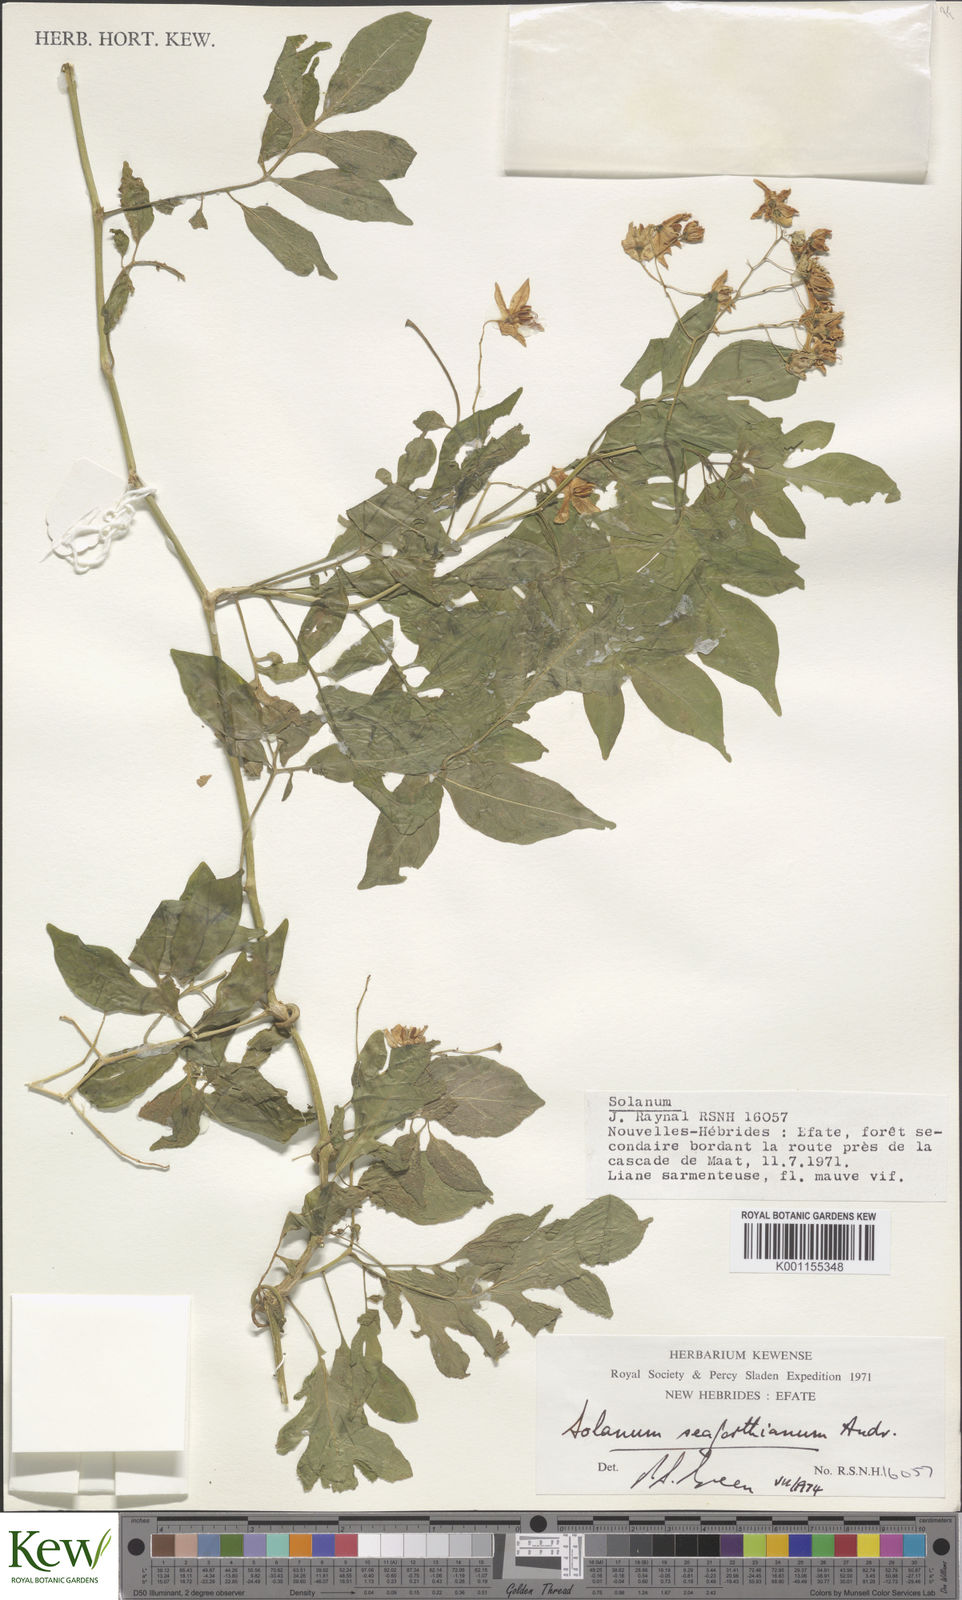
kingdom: Plantae
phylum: Tracheophyta
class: Magnoliopsida
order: Solanales
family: Solanaceae
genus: Solanum
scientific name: Solanum seaforthianum
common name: Brazilian nightshade
